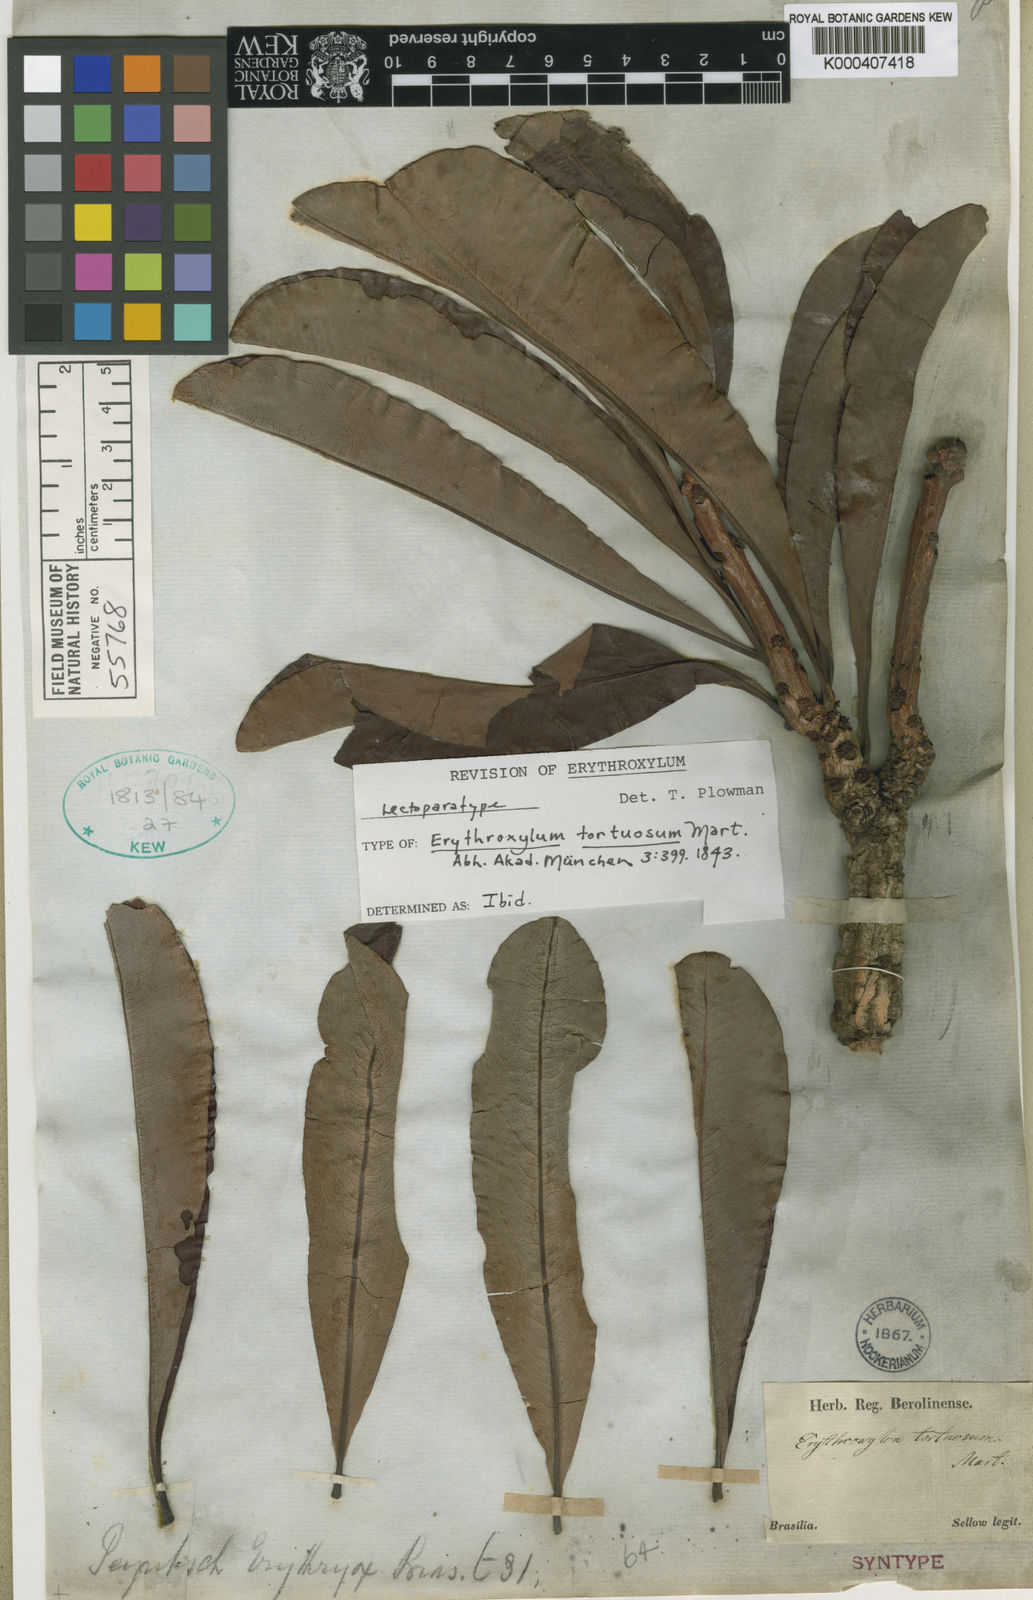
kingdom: Plantae
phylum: Tracheophyta
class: Magnoliopsida
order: Malpighiales
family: Erythroxylaceae
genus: Erythroxylum
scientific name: Erythroxylum tortuosum
